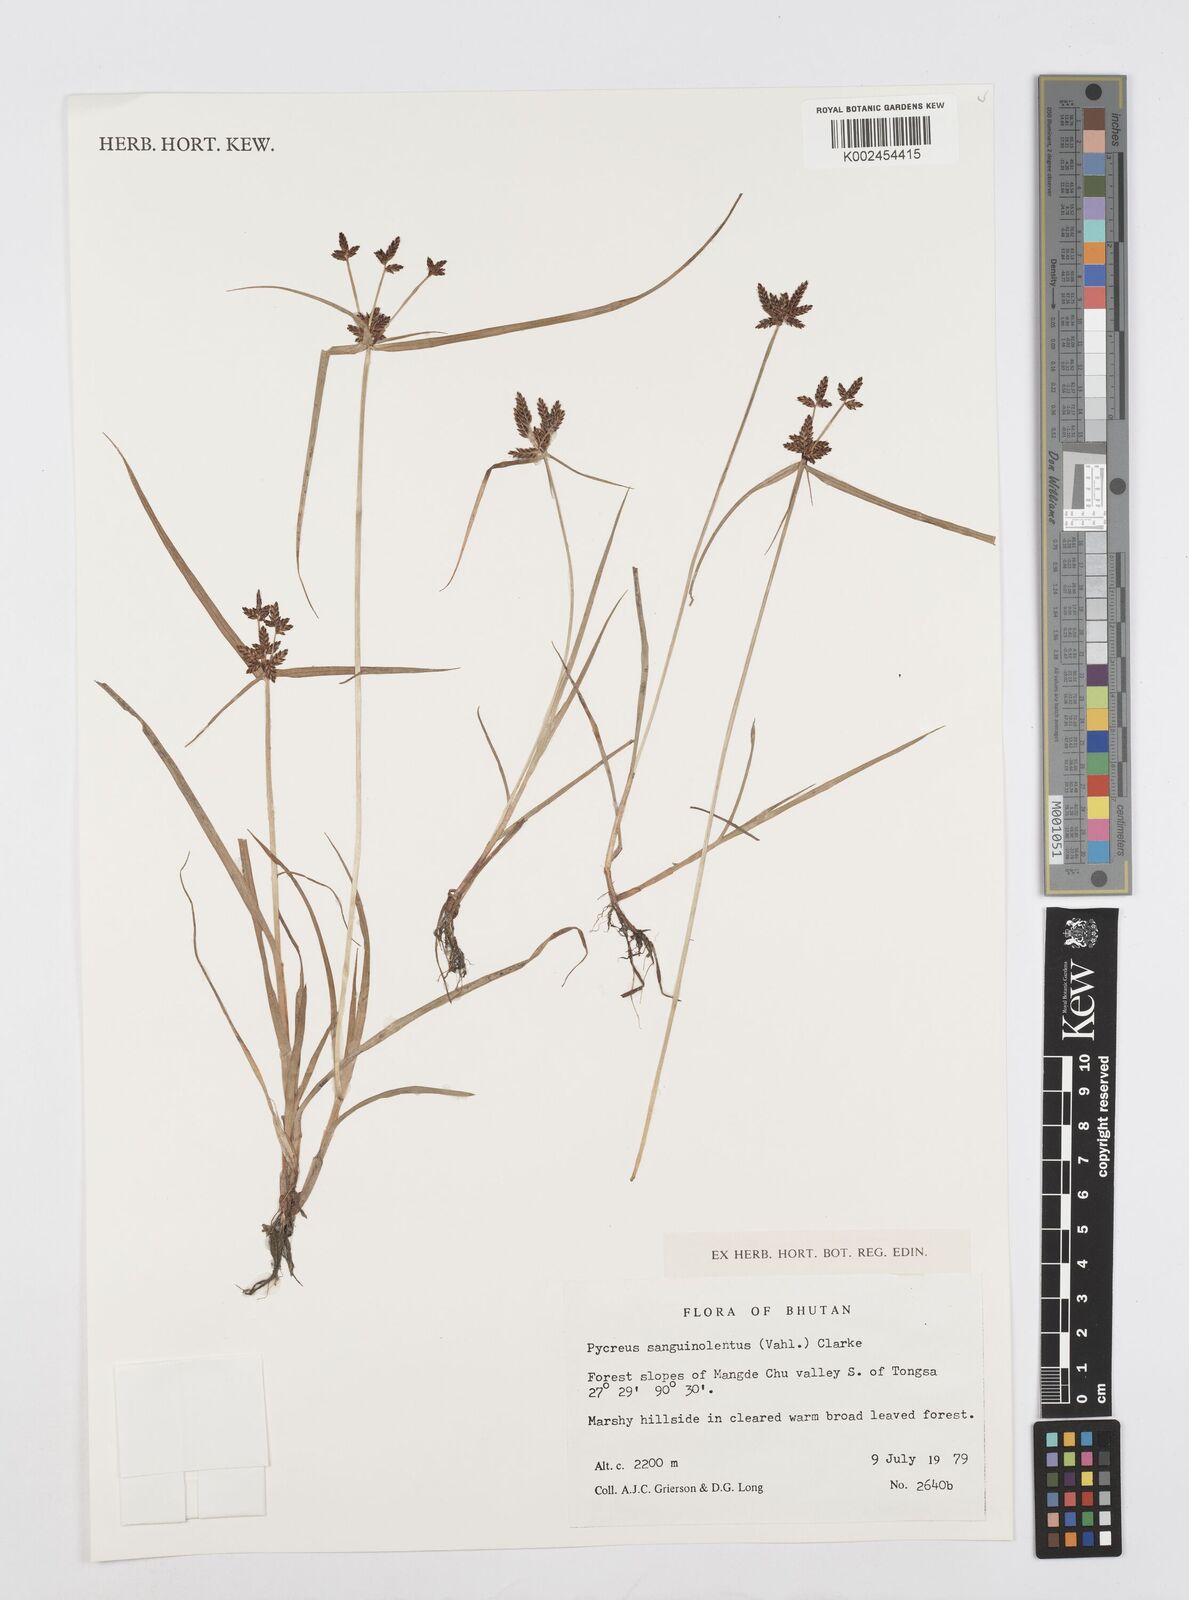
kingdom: Plantae
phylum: Tracheophyta
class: Liliopsida
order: Poales
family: Cyperaceae
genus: Cyperus
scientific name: Cyperus sanguinolentus
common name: Purpleglume flatsedge
